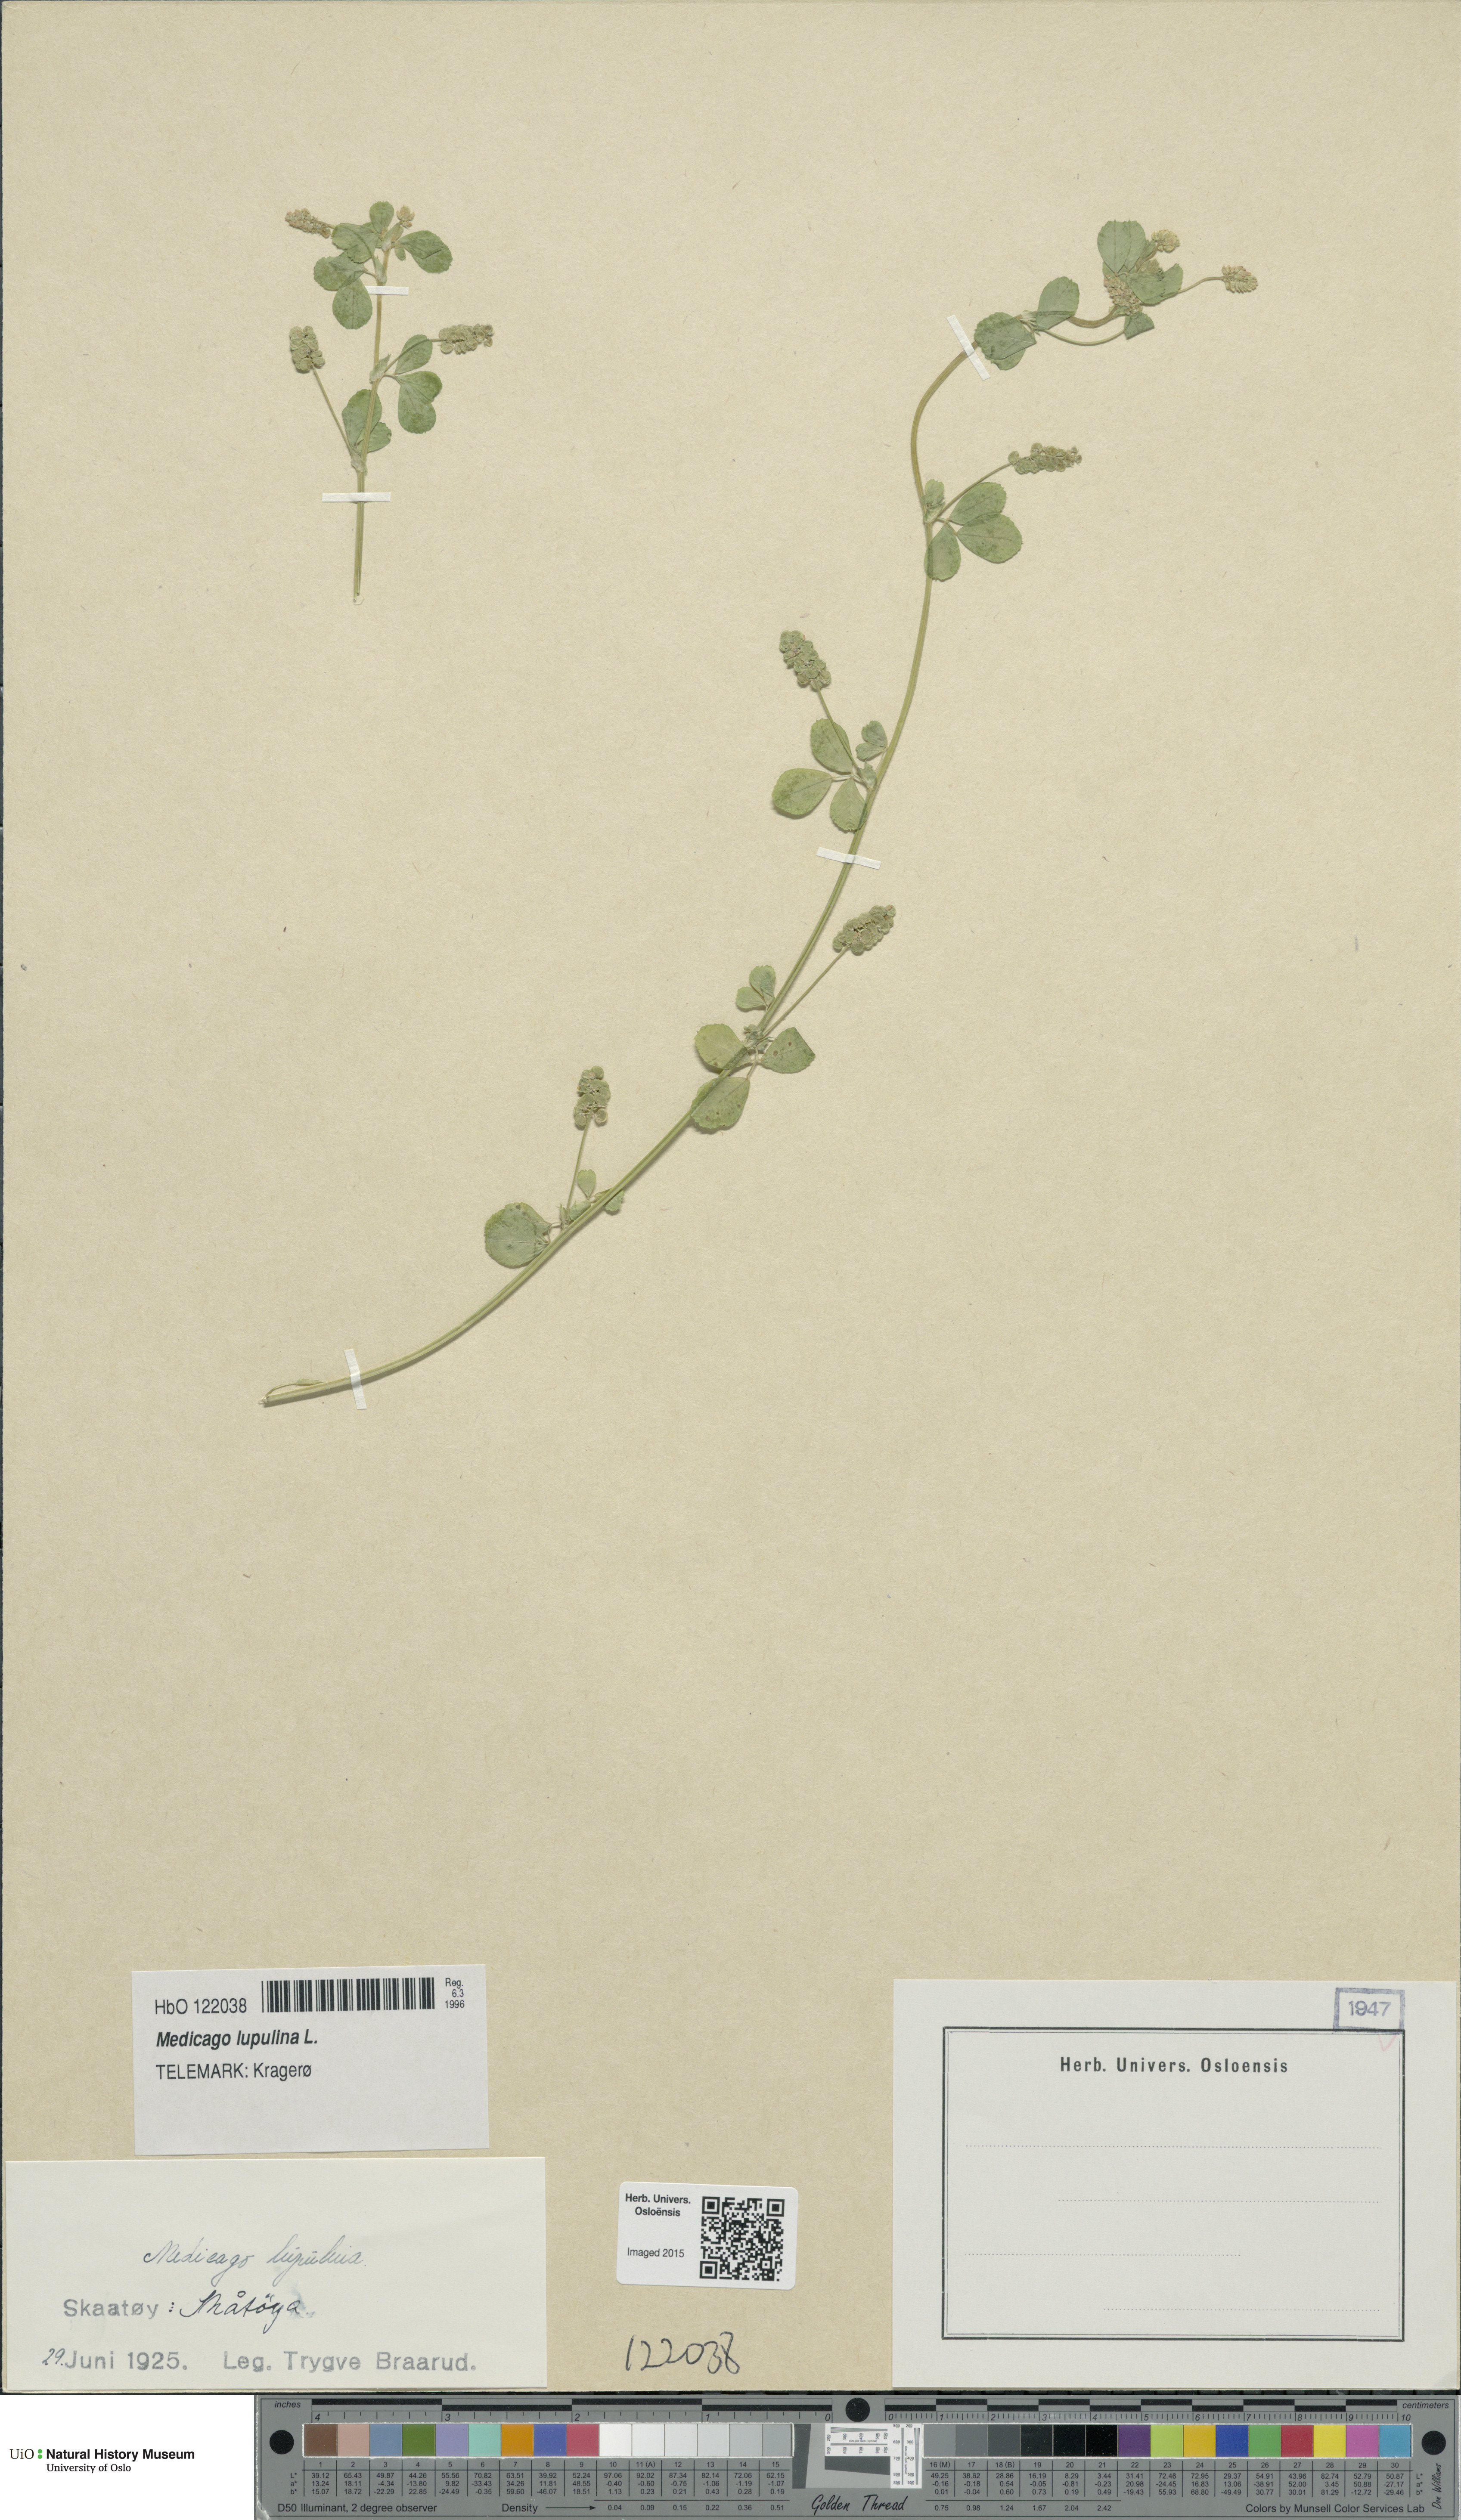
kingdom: Plantae
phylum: Tracheophyta
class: Magnoliopsida
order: Fabales
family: Fabaceae
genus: Medicago
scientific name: Medicago lupulina
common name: Black medick
